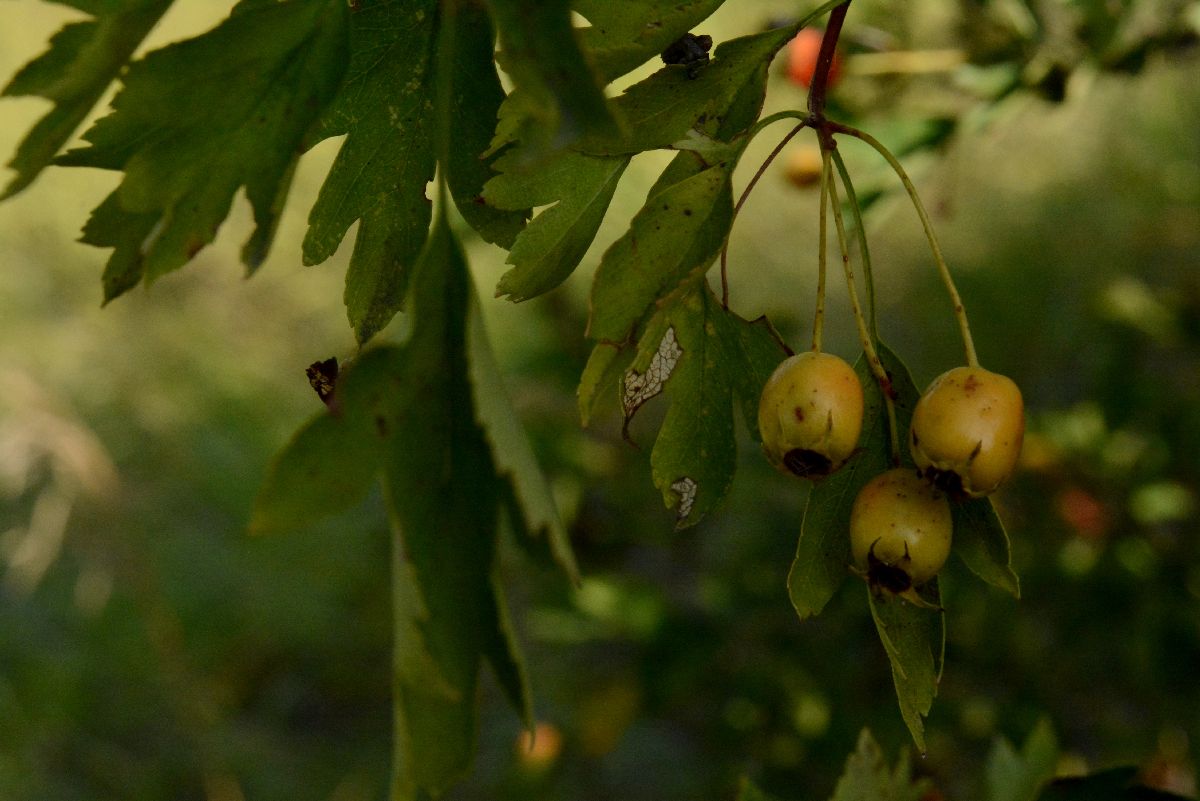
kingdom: Plantae
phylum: Tracheophyta
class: Magnoliopsida
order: Rosales
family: Rosaceae
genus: Crataegus
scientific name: Crataegus monogyna
